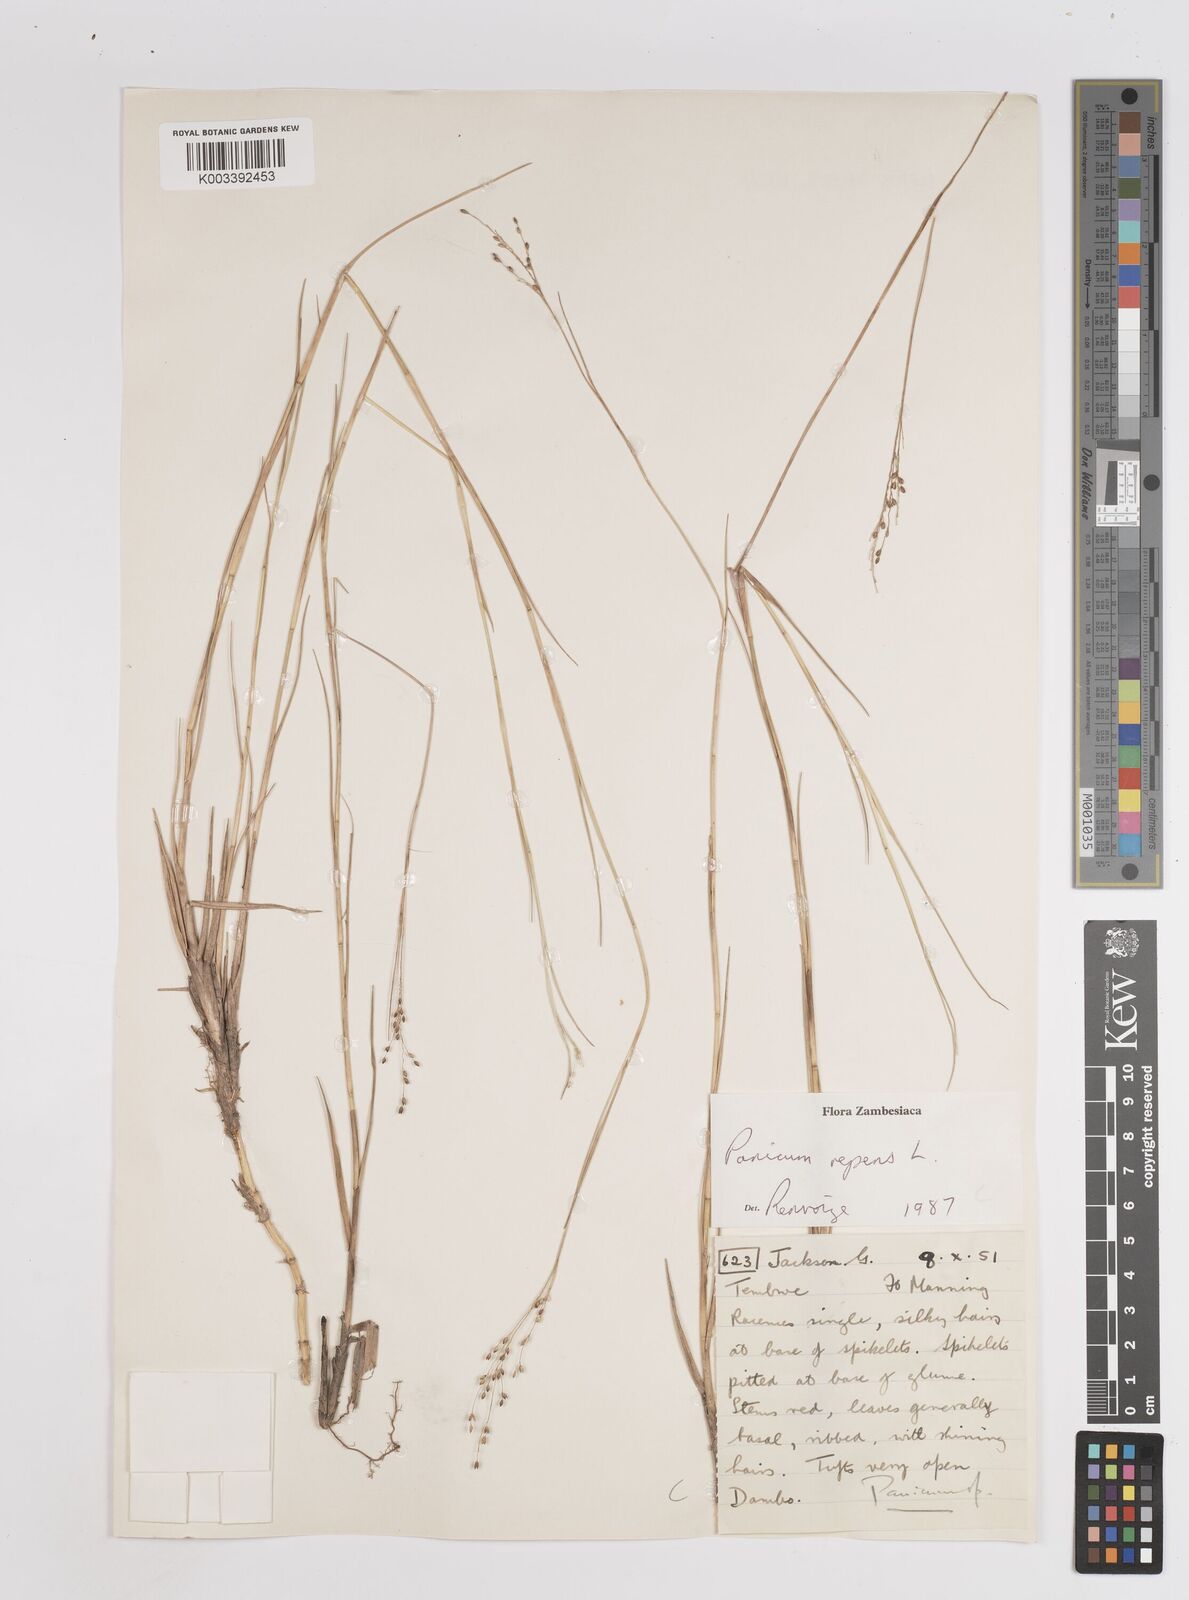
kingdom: Plantae
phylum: Tracheophyta
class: Liliopsida
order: Poales
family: Poaceae
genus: Panicum
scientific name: Panicum repens
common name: Torpedo grass
